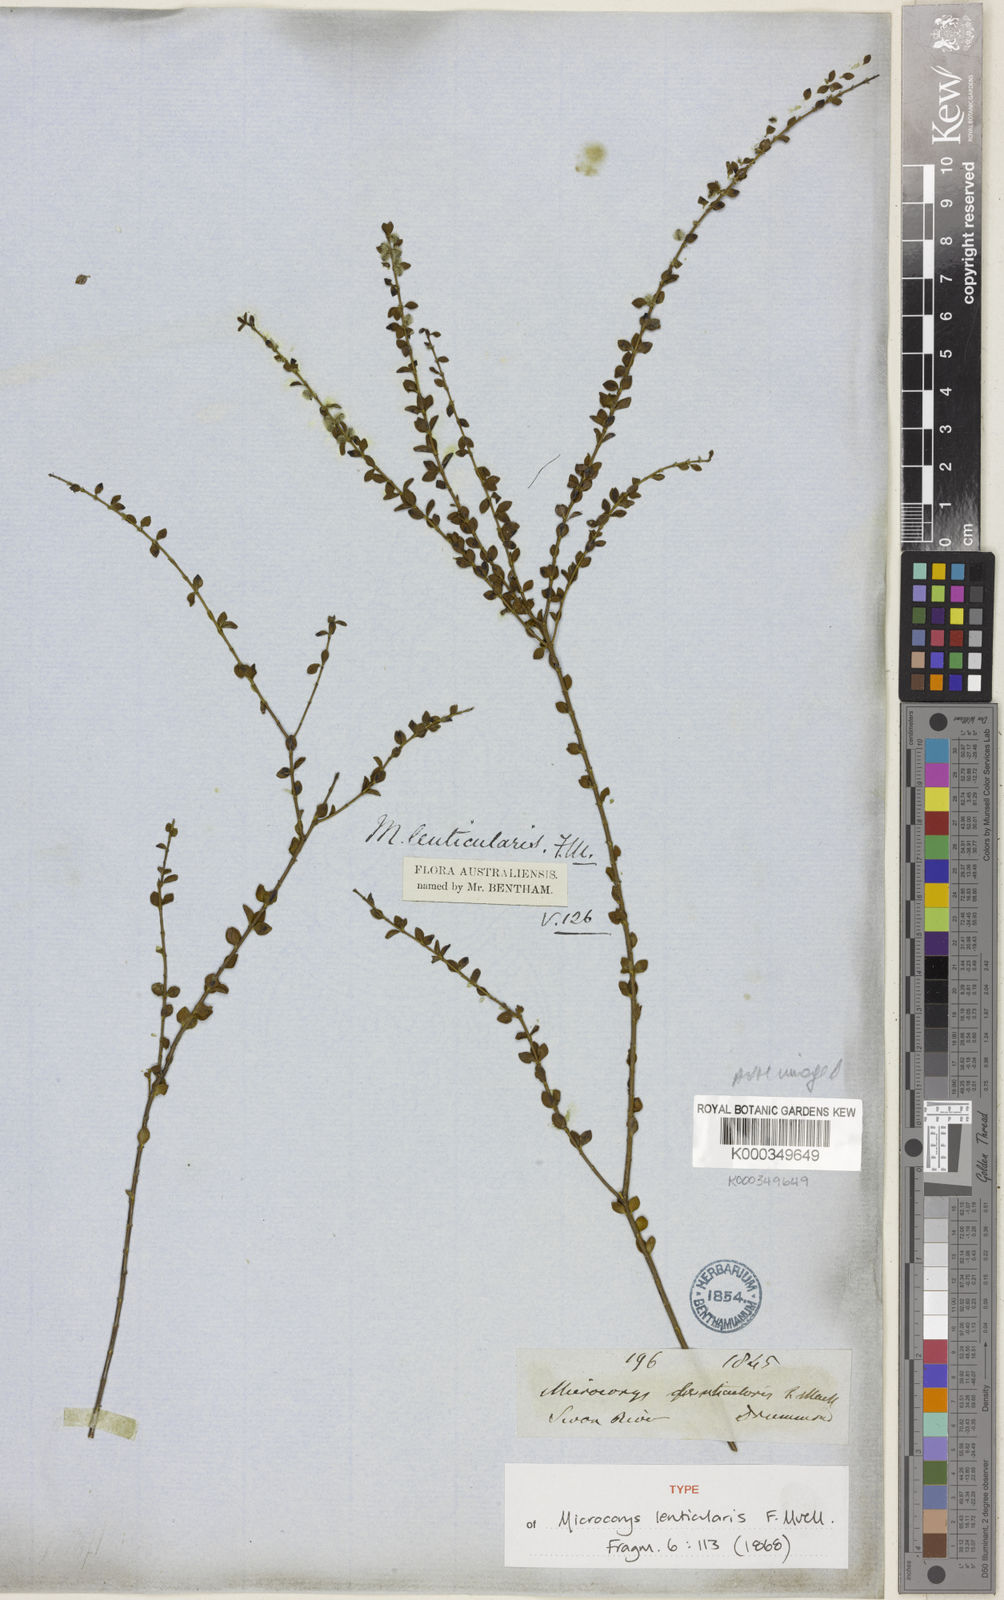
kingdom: Plantae
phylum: Tracheophyta
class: Magnoliopsida
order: Lamiales
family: Lamiaceae
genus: Microcorys
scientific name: Microcorys lenticularis
